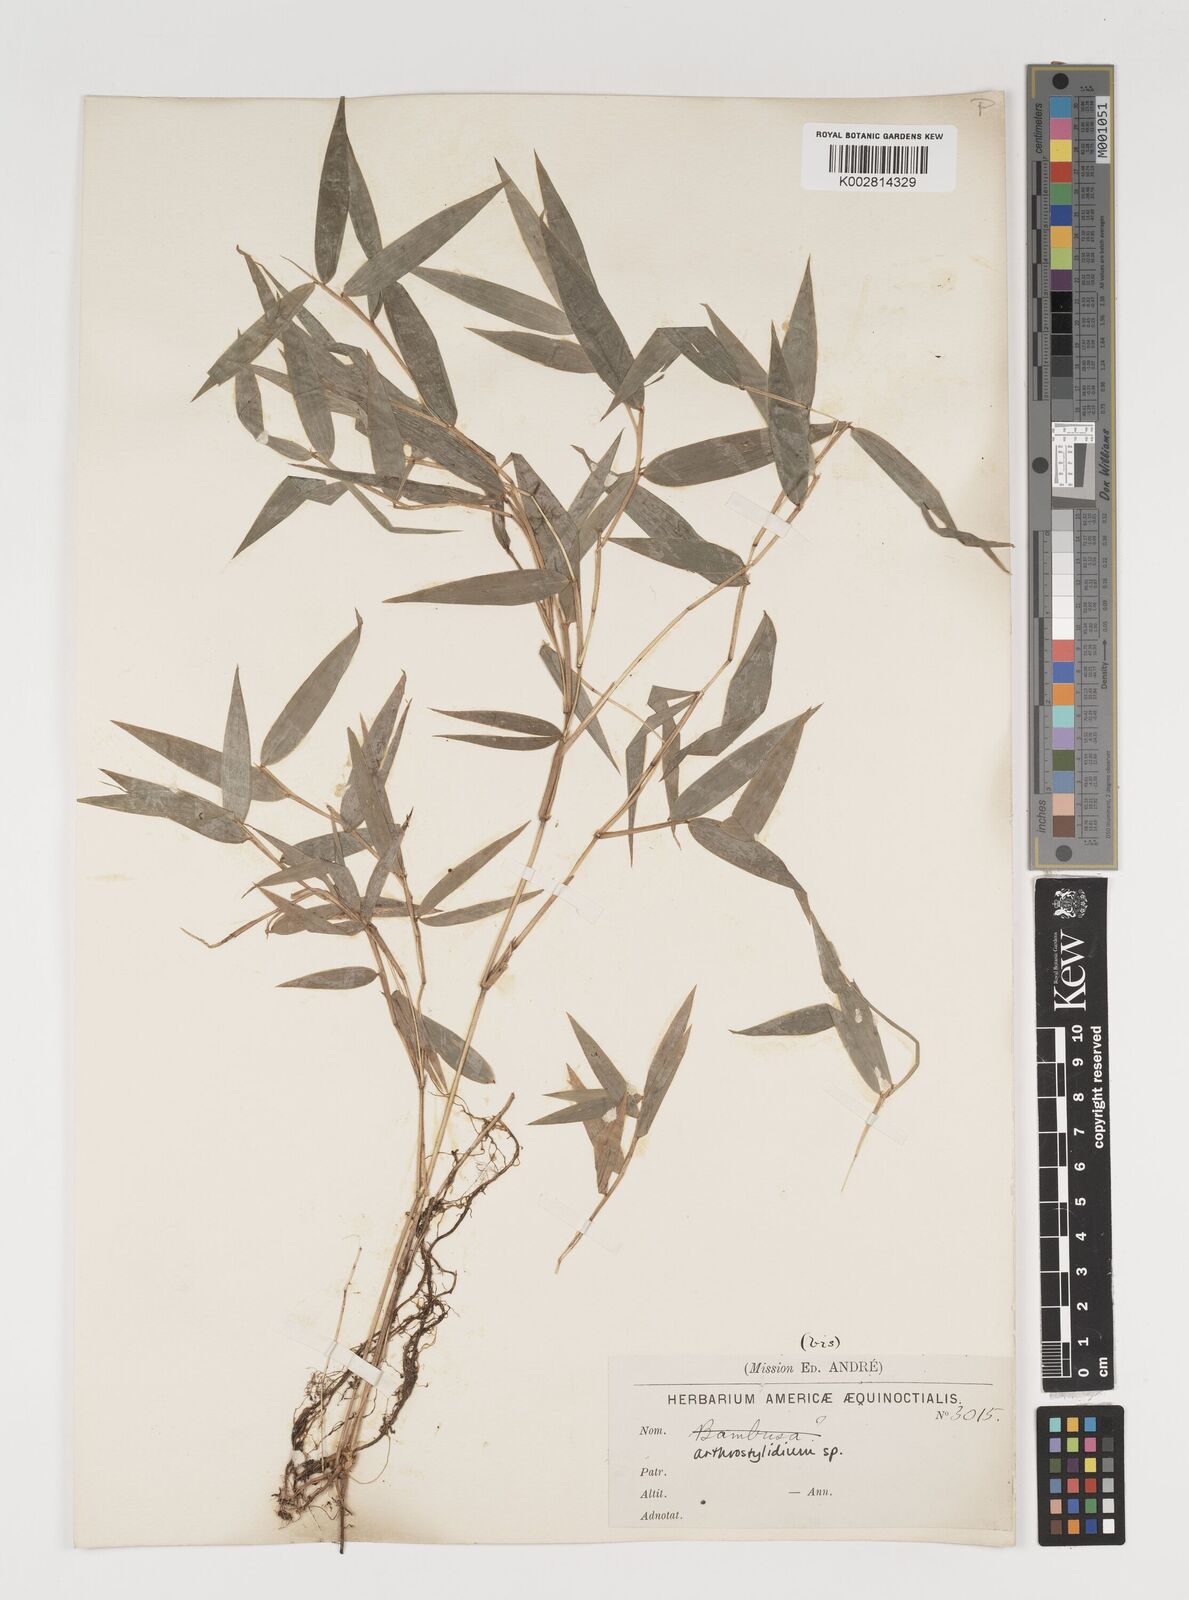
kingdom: Plantae
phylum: Tracheophyta
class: Liliopsida
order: Poales
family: Poaceae
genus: Arthrostylidium
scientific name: Arthrostylidium
